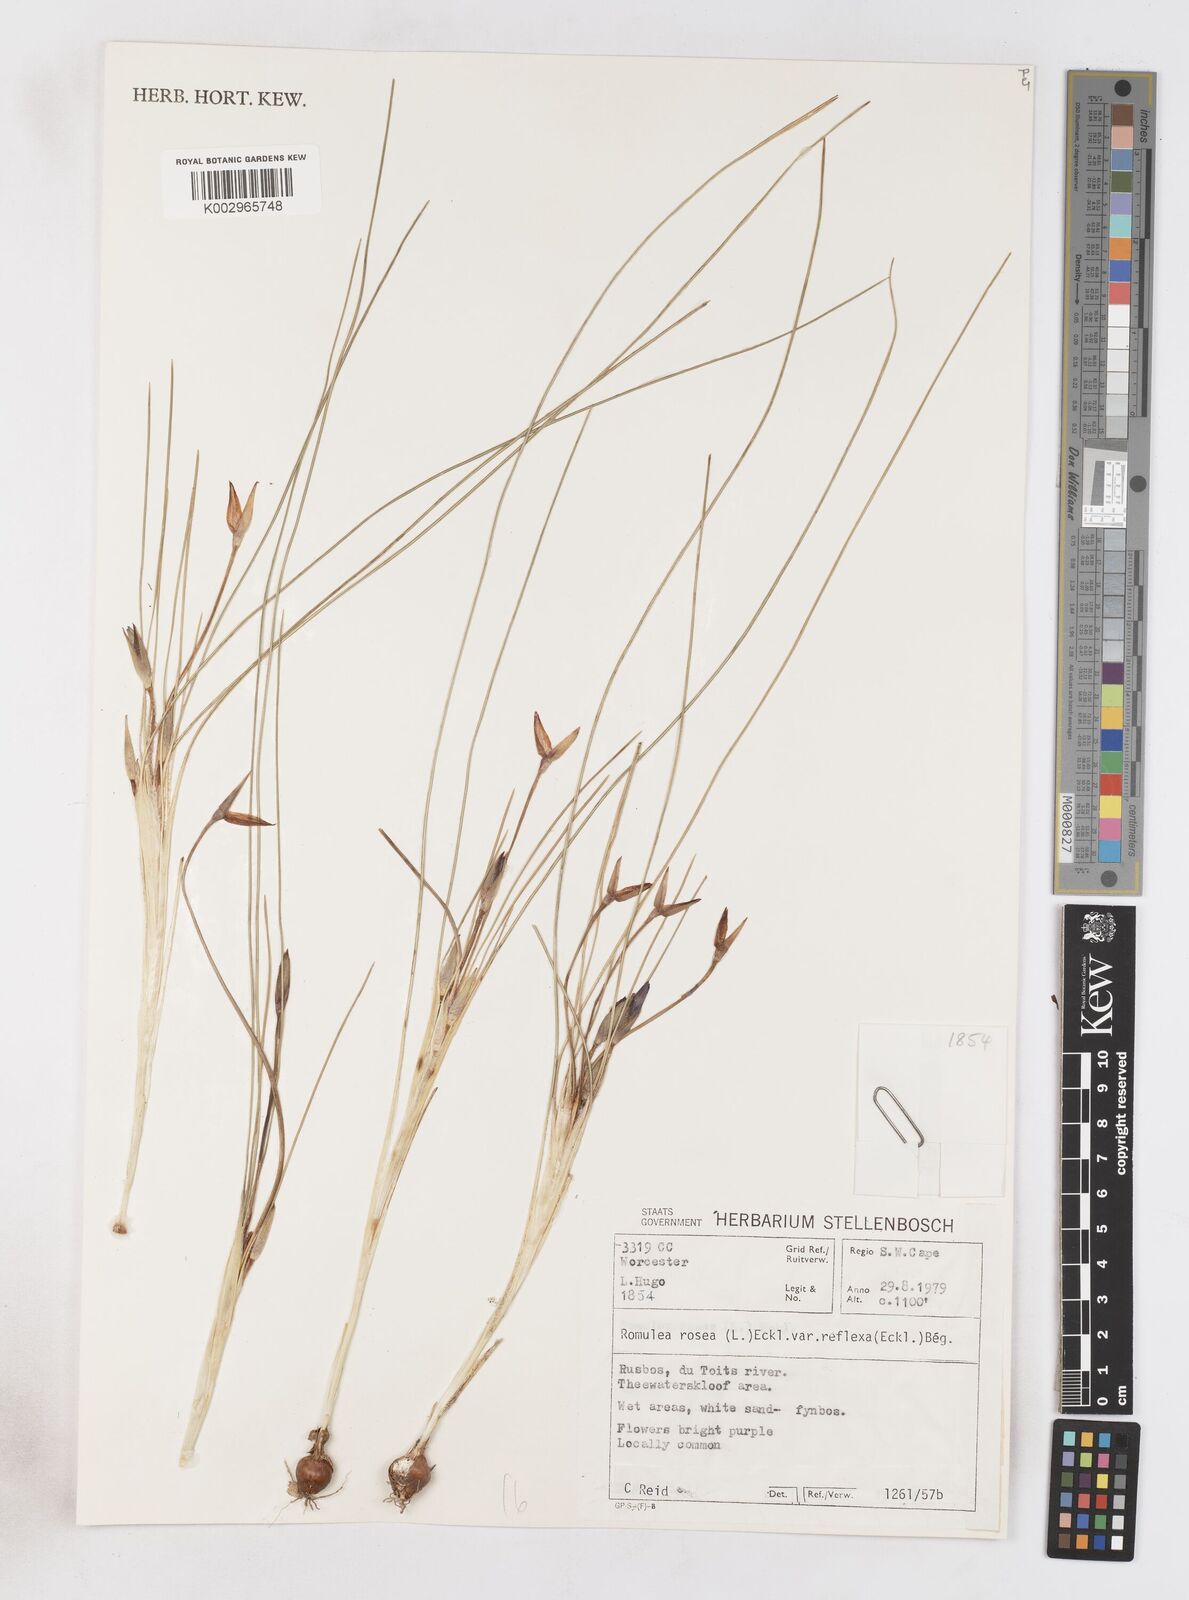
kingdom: Plantae
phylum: Tracheophyta
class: Liliopsida
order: Asparagales
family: Iridaceae
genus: Romulea
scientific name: Romulea rosea
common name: Oniongrass
